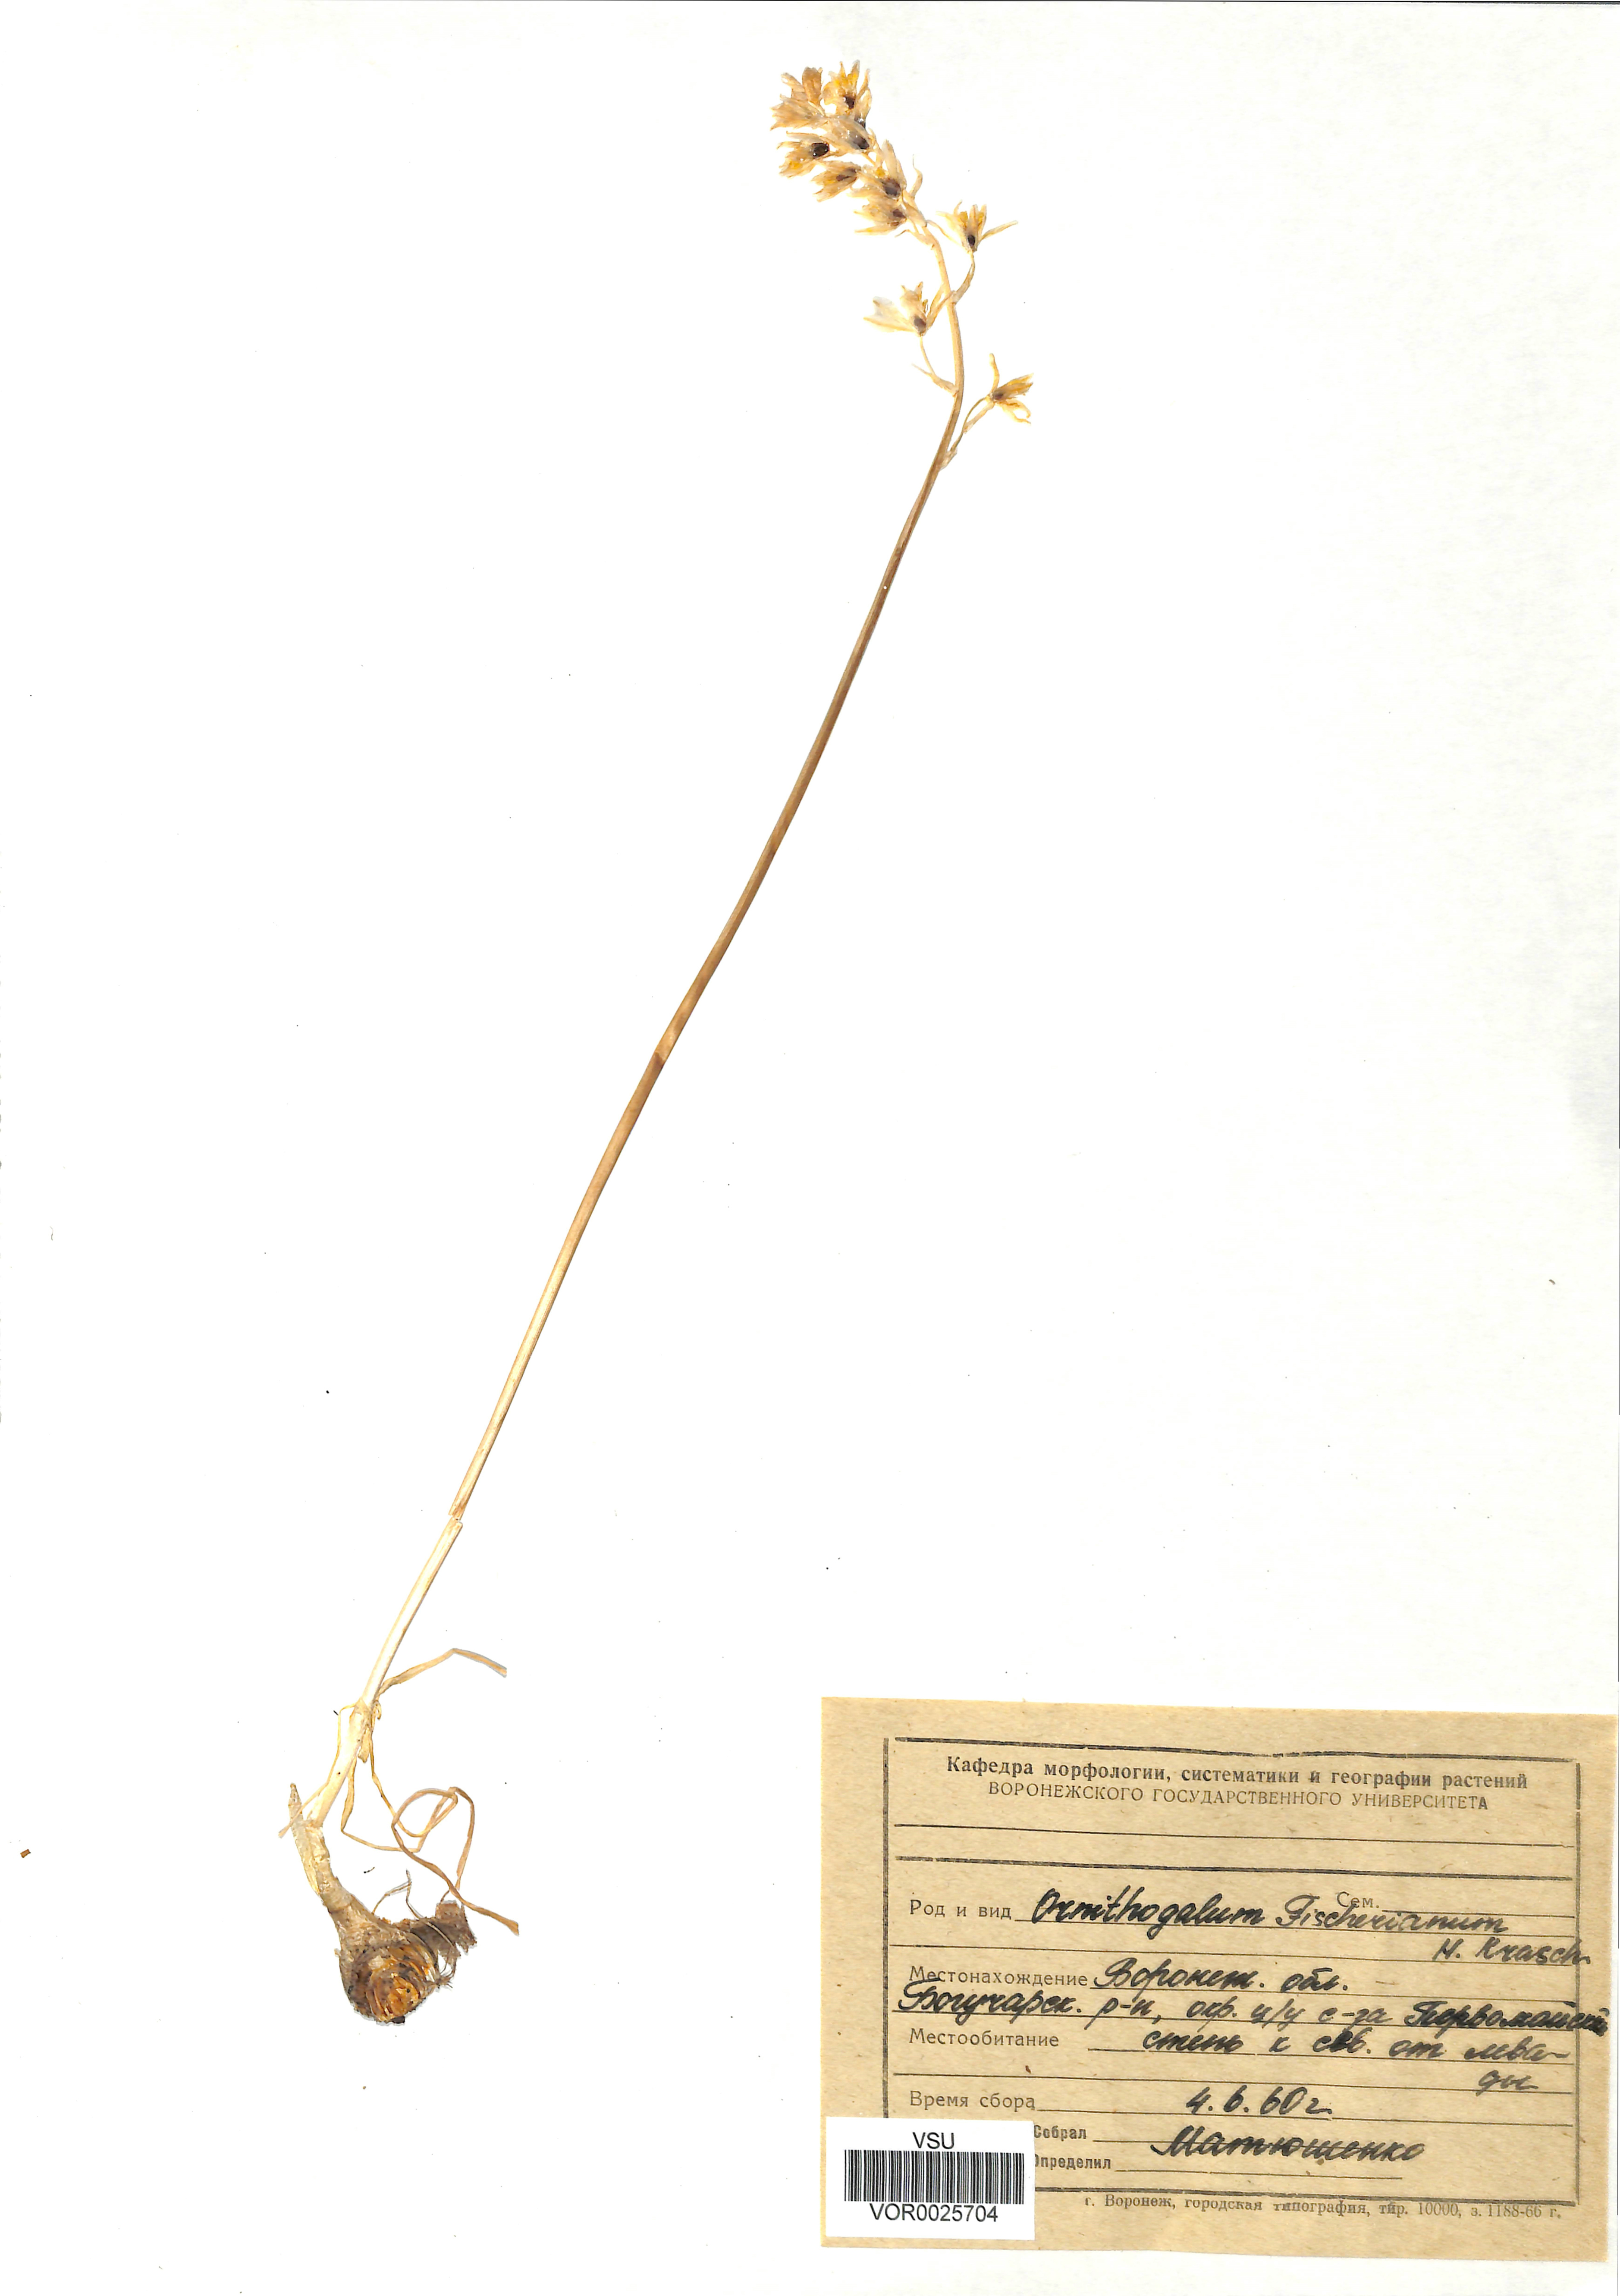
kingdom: Plantae
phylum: Tracheophyta
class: Liliopsida
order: Asparagales
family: Asparagaceae
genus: Ornithogalum
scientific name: Ornithogalum fischerianum
